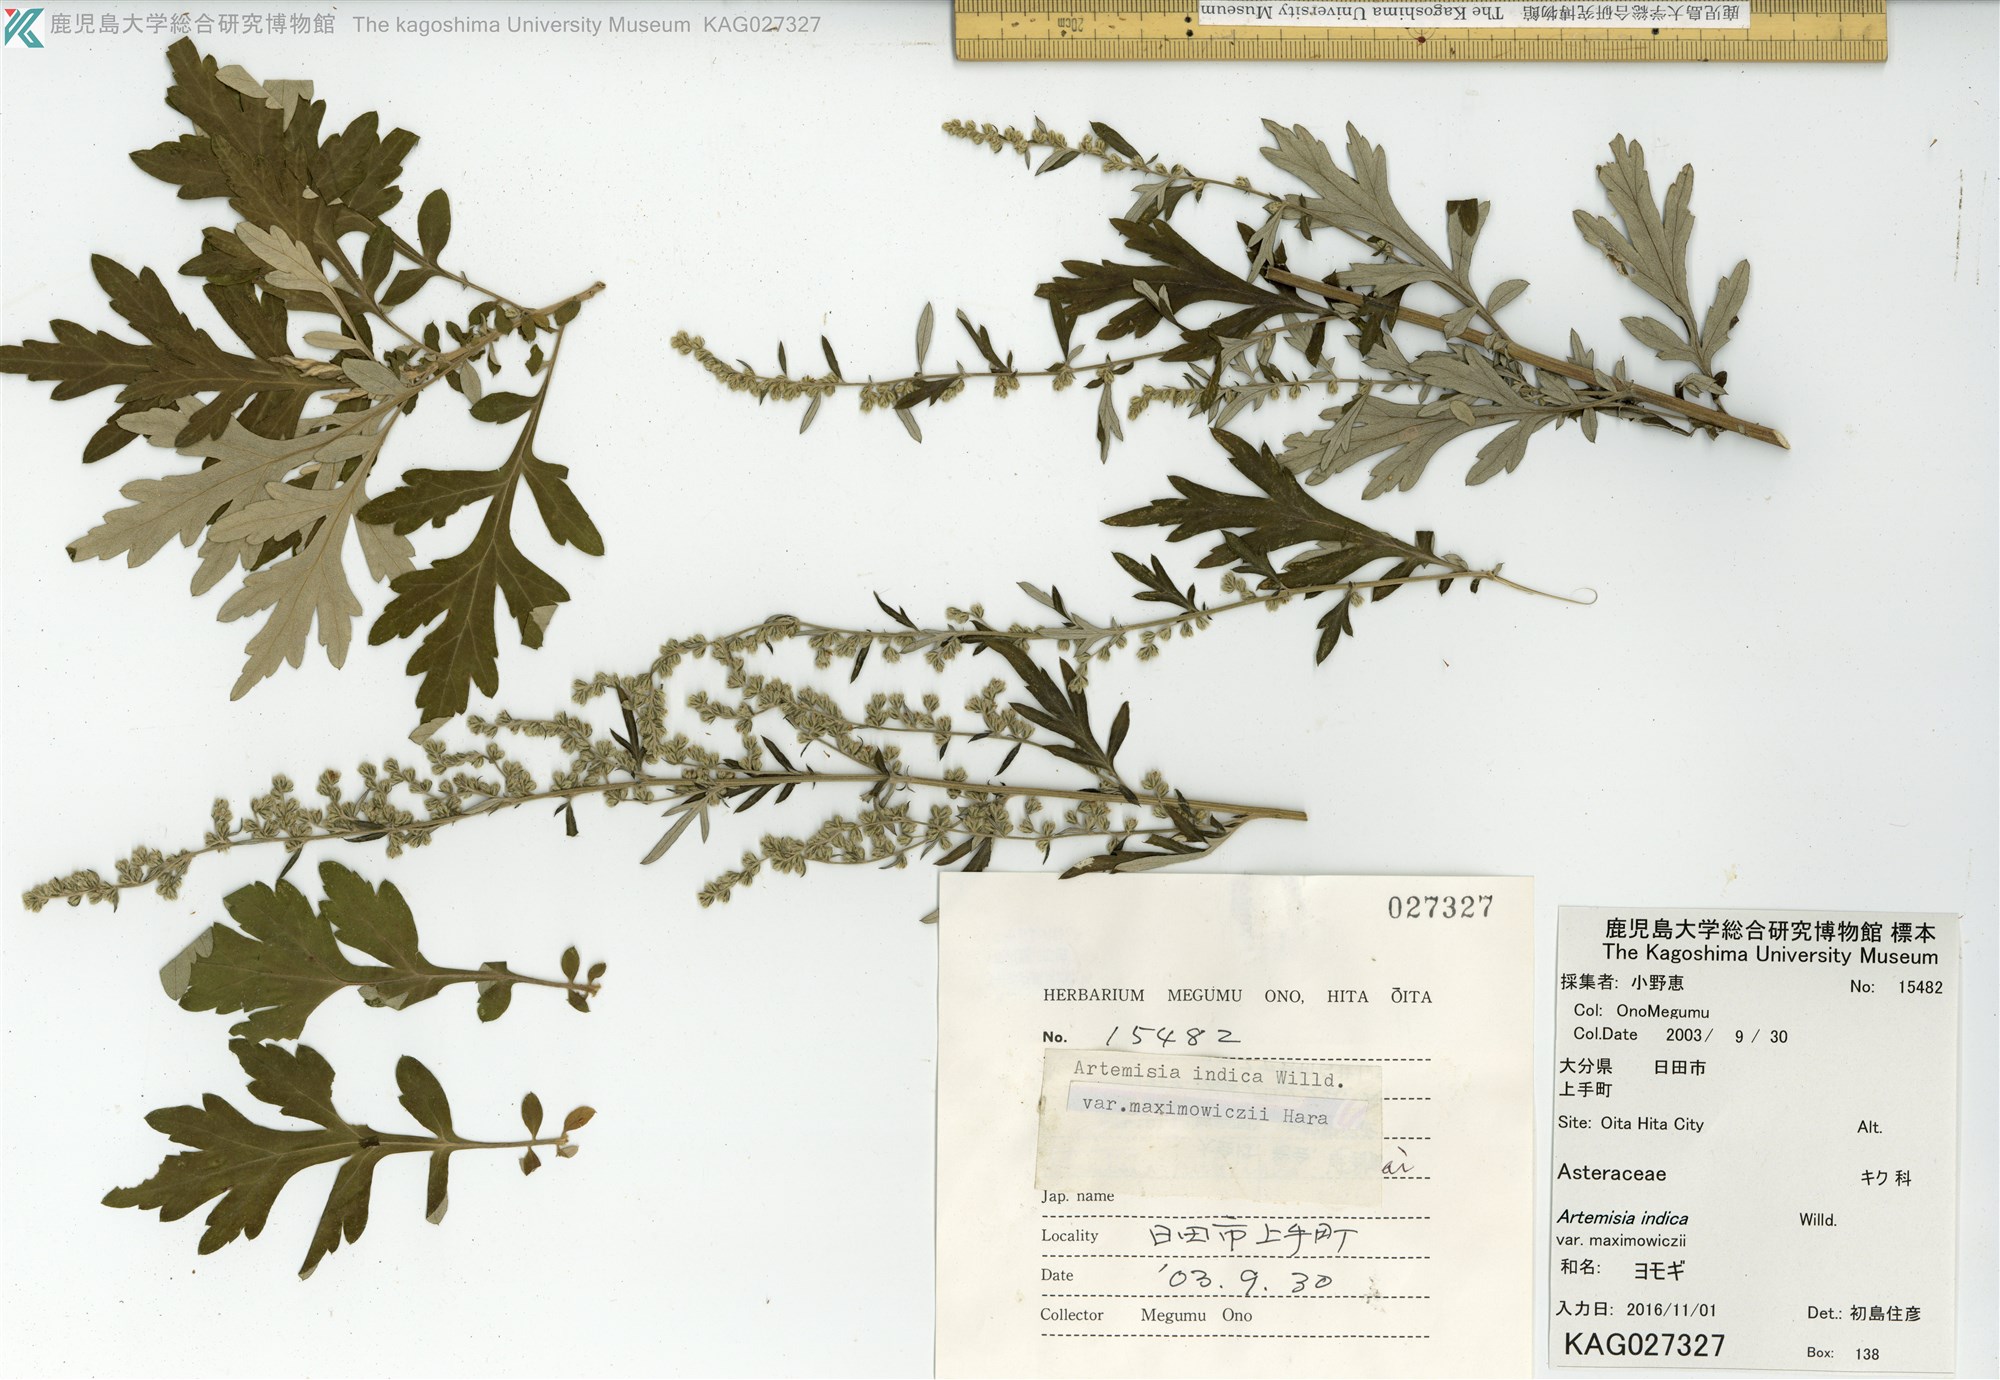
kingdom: Plantae
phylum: Tracheophyta
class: Magnoliopsida
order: Asterales
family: Asteraceae
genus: Artemisia
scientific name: Artemisia princeps
